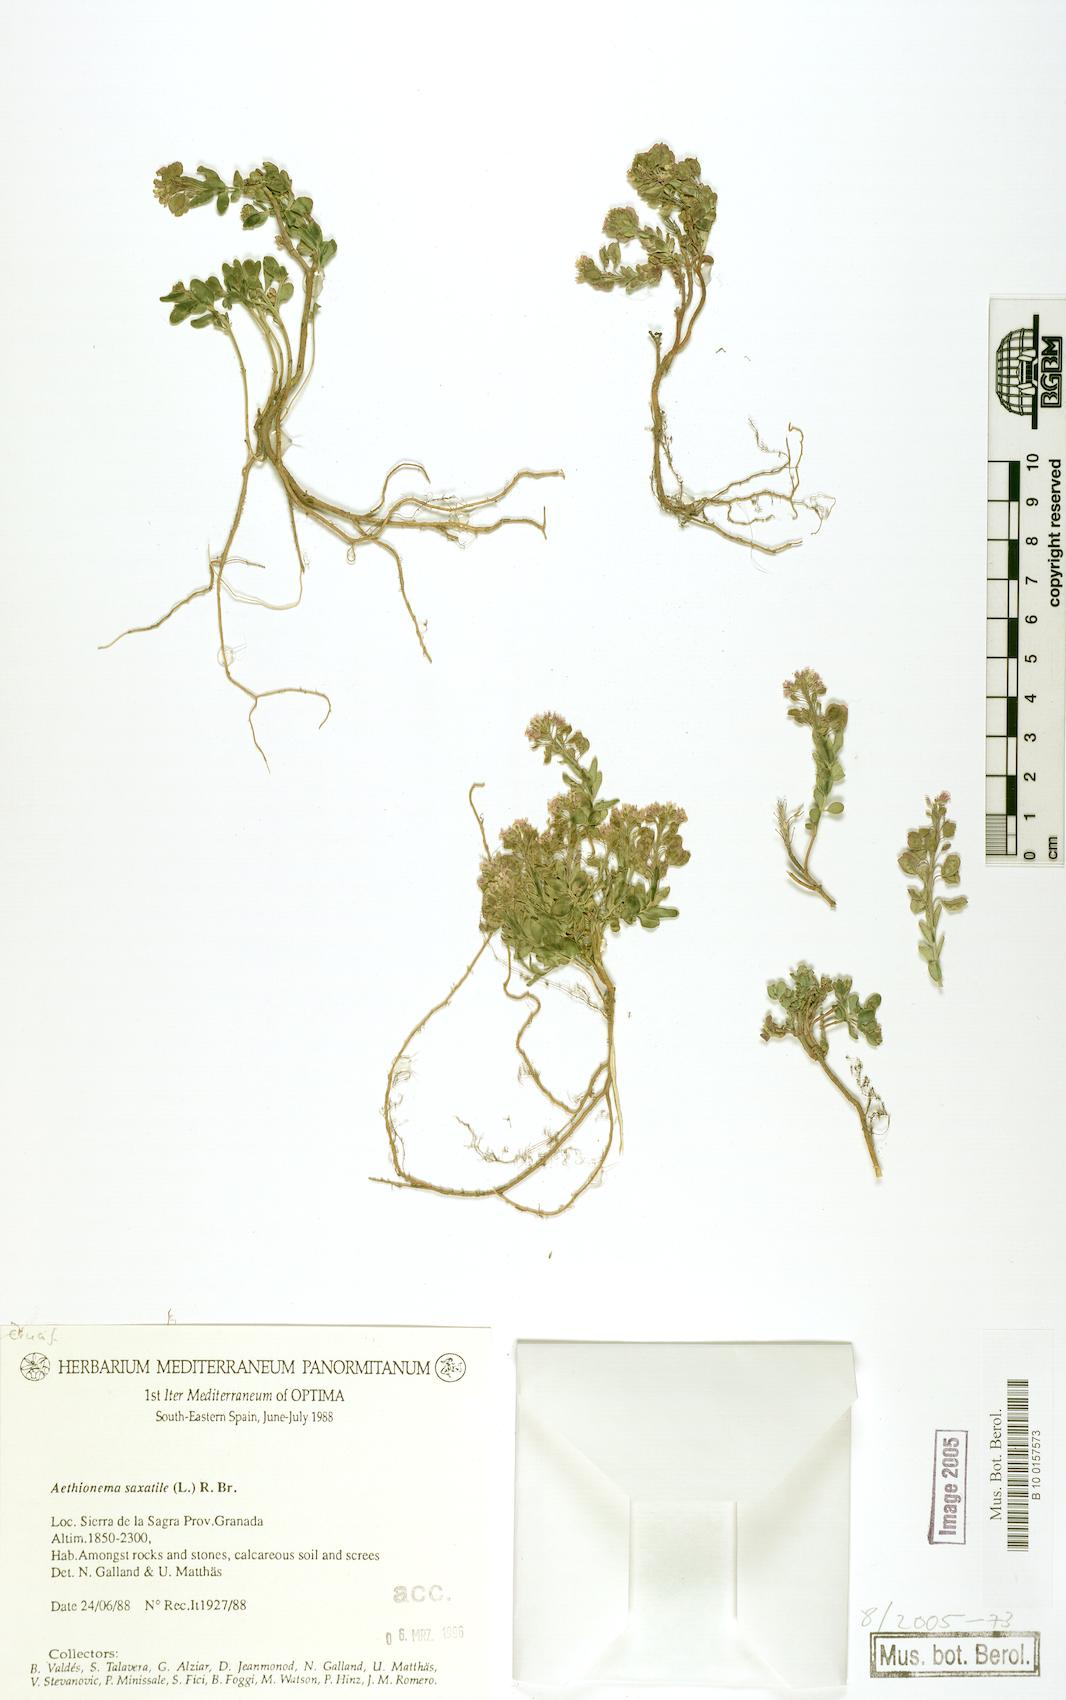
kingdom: Plantae
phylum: Tracheophyta
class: Magnoliopsida
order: Brassicales
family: Brassicaceae
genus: Aethionema
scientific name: Aethionema saxatile
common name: Burnt candytuft
